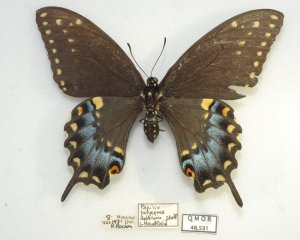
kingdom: Animalia
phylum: Arthropoda
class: Insecta
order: Lepidoptera
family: Papilionidae
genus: Papilio
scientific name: Papilio polyxenes
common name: Black Swallowtail
